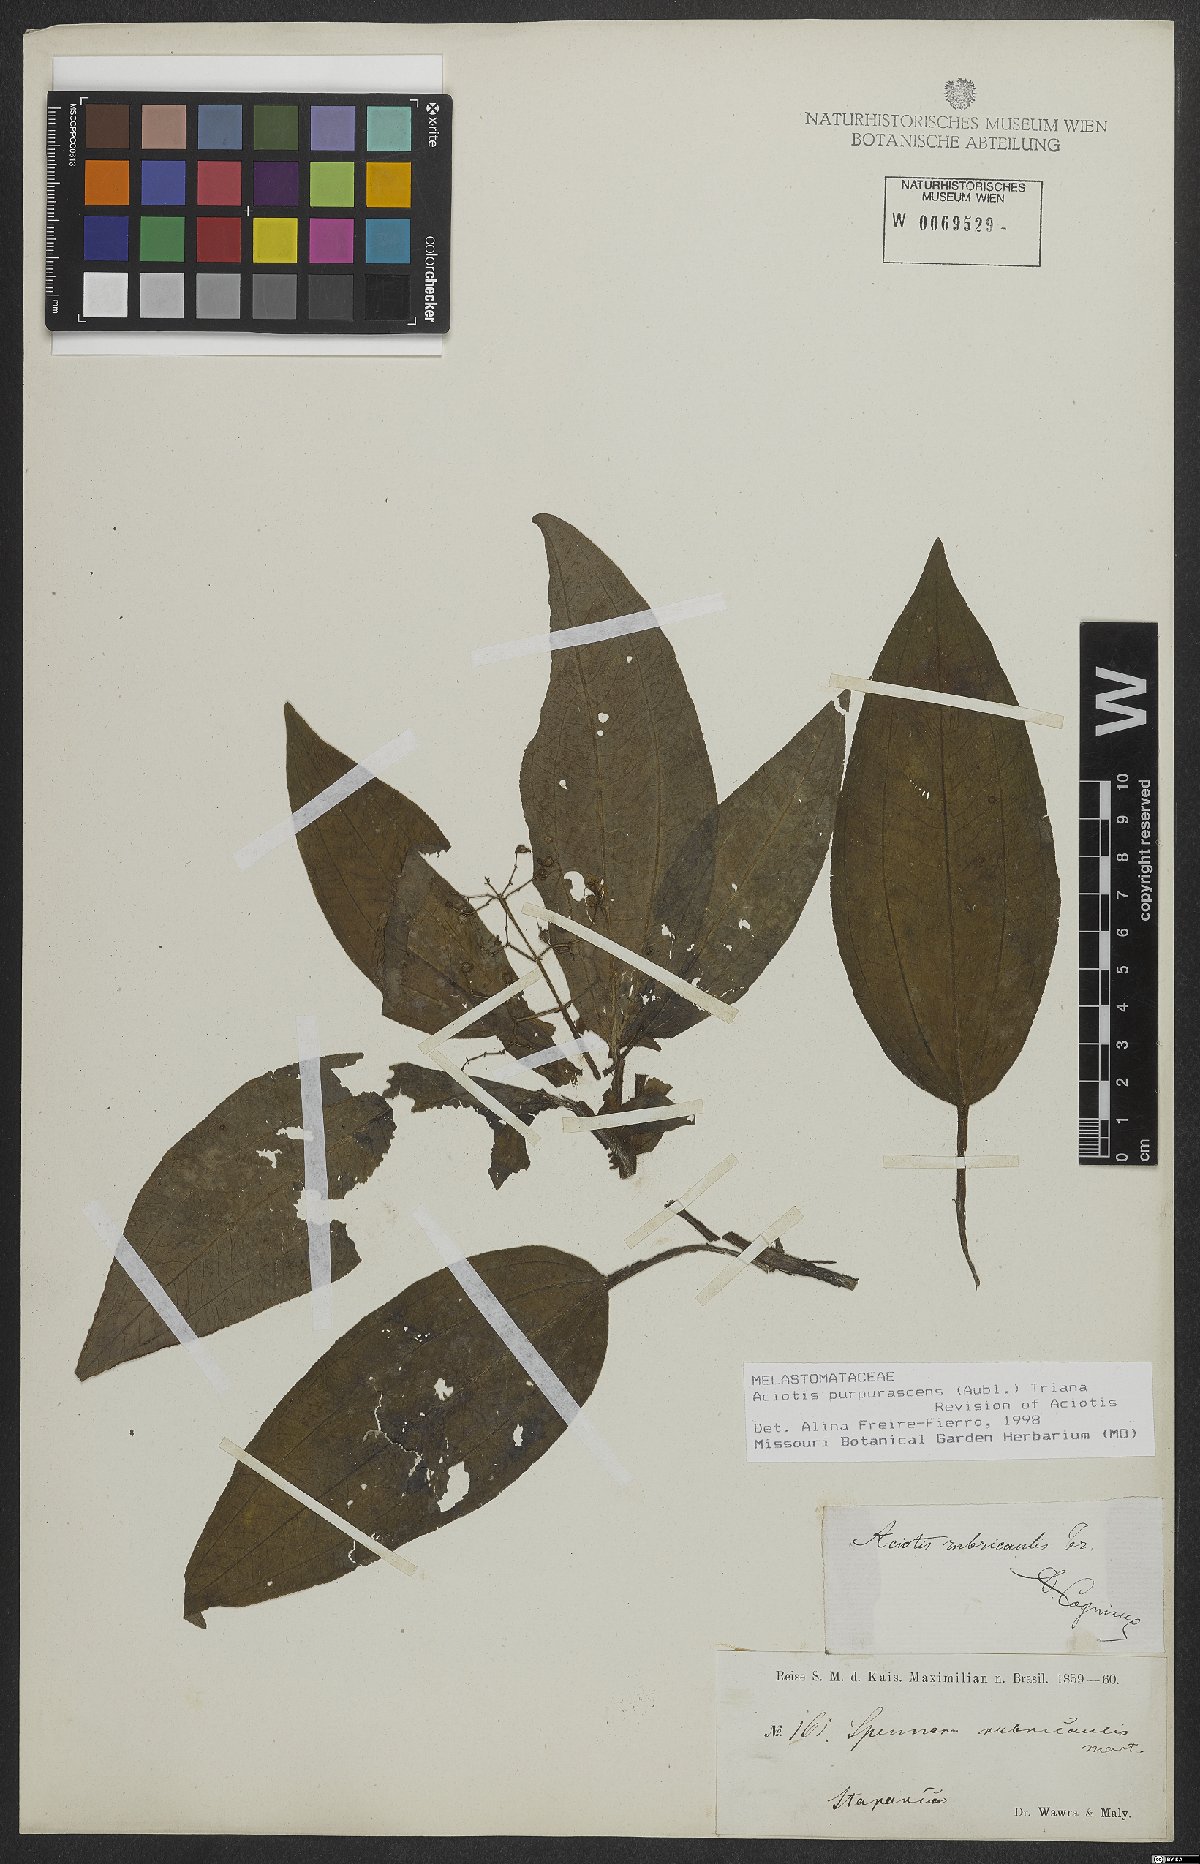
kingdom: Plantae
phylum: Tracheophyta
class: Magnoliopsida
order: Myrtales
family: Melastomataceae
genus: Aciotis
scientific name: Aciotis purpurascens
